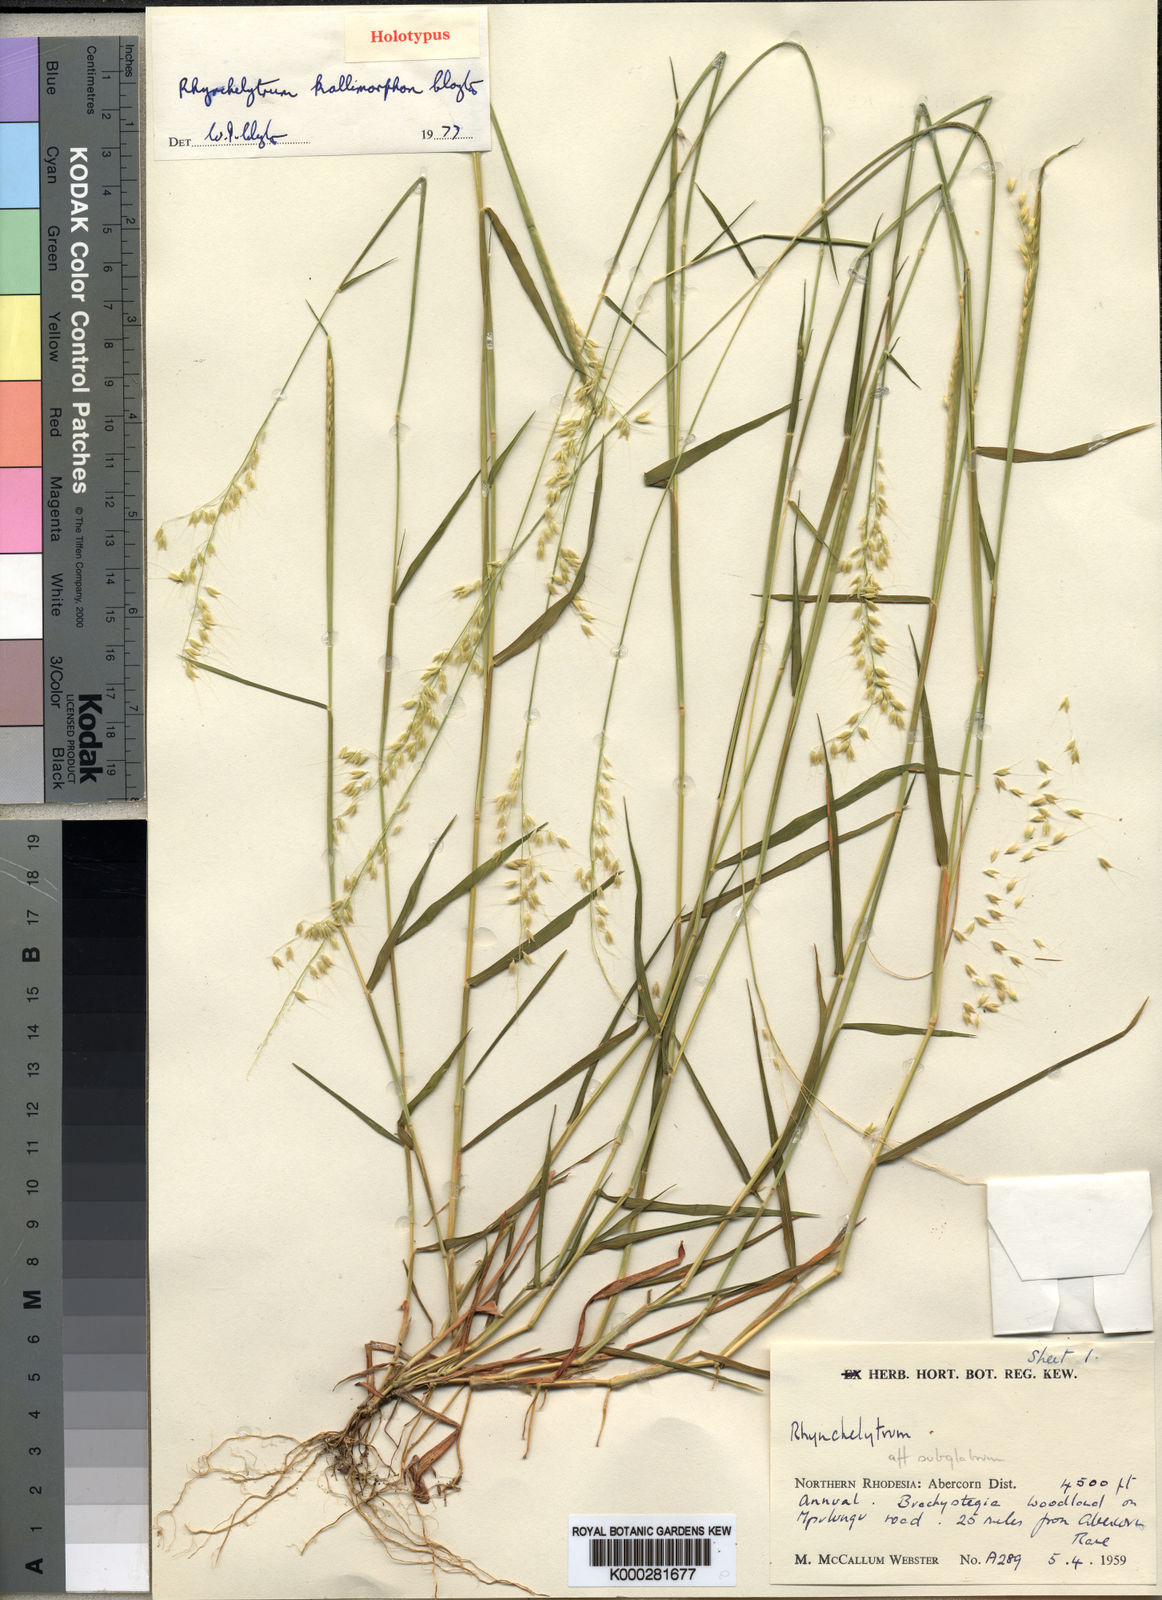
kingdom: Plantae
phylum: Tracheophyta
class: Liliopsida
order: Poales
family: Poaceae
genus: Melinis
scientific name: Melinis kallimorpha
